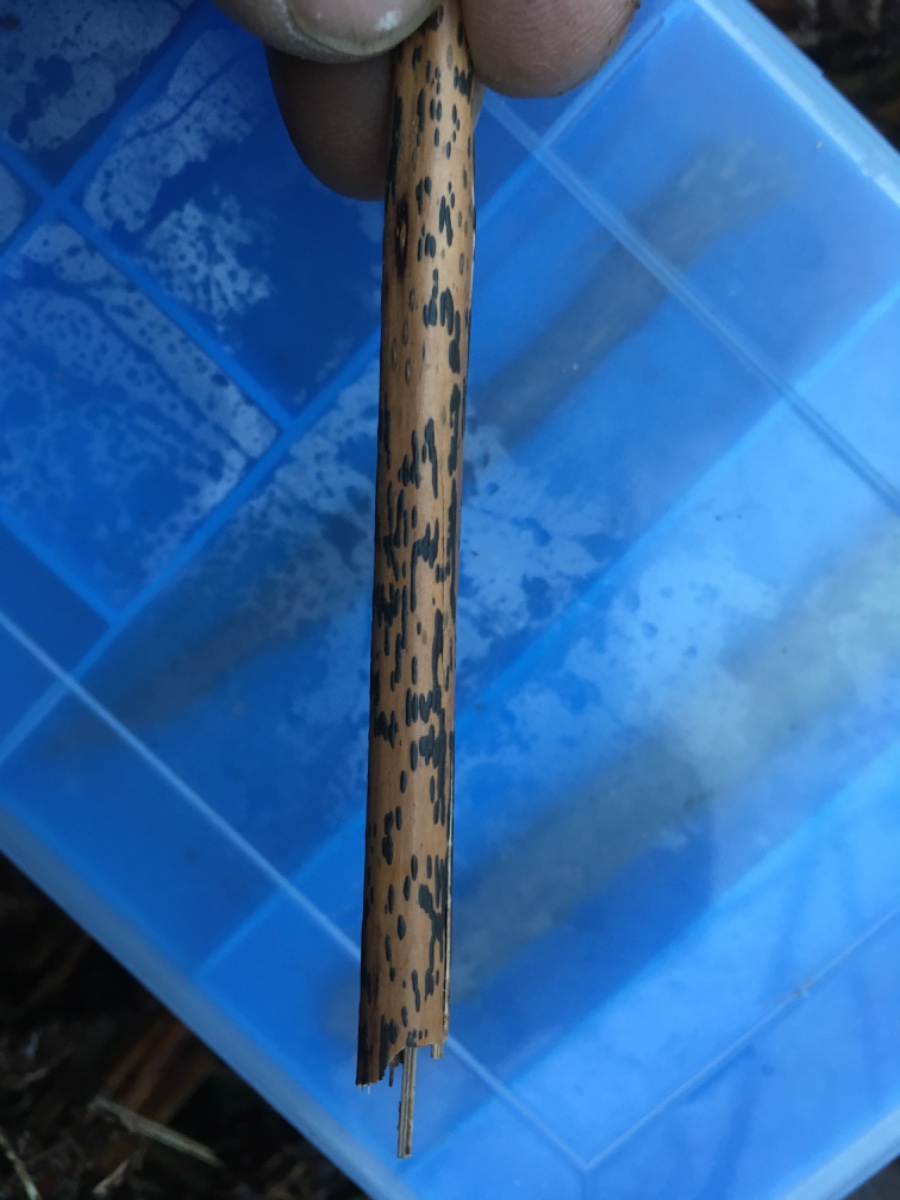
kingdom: Fungi
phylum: Ascomycota
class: Dothideomycetes
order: Pleosporales
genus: Rhopographus
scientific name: Rhopographus filicinus
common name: Bracken map
